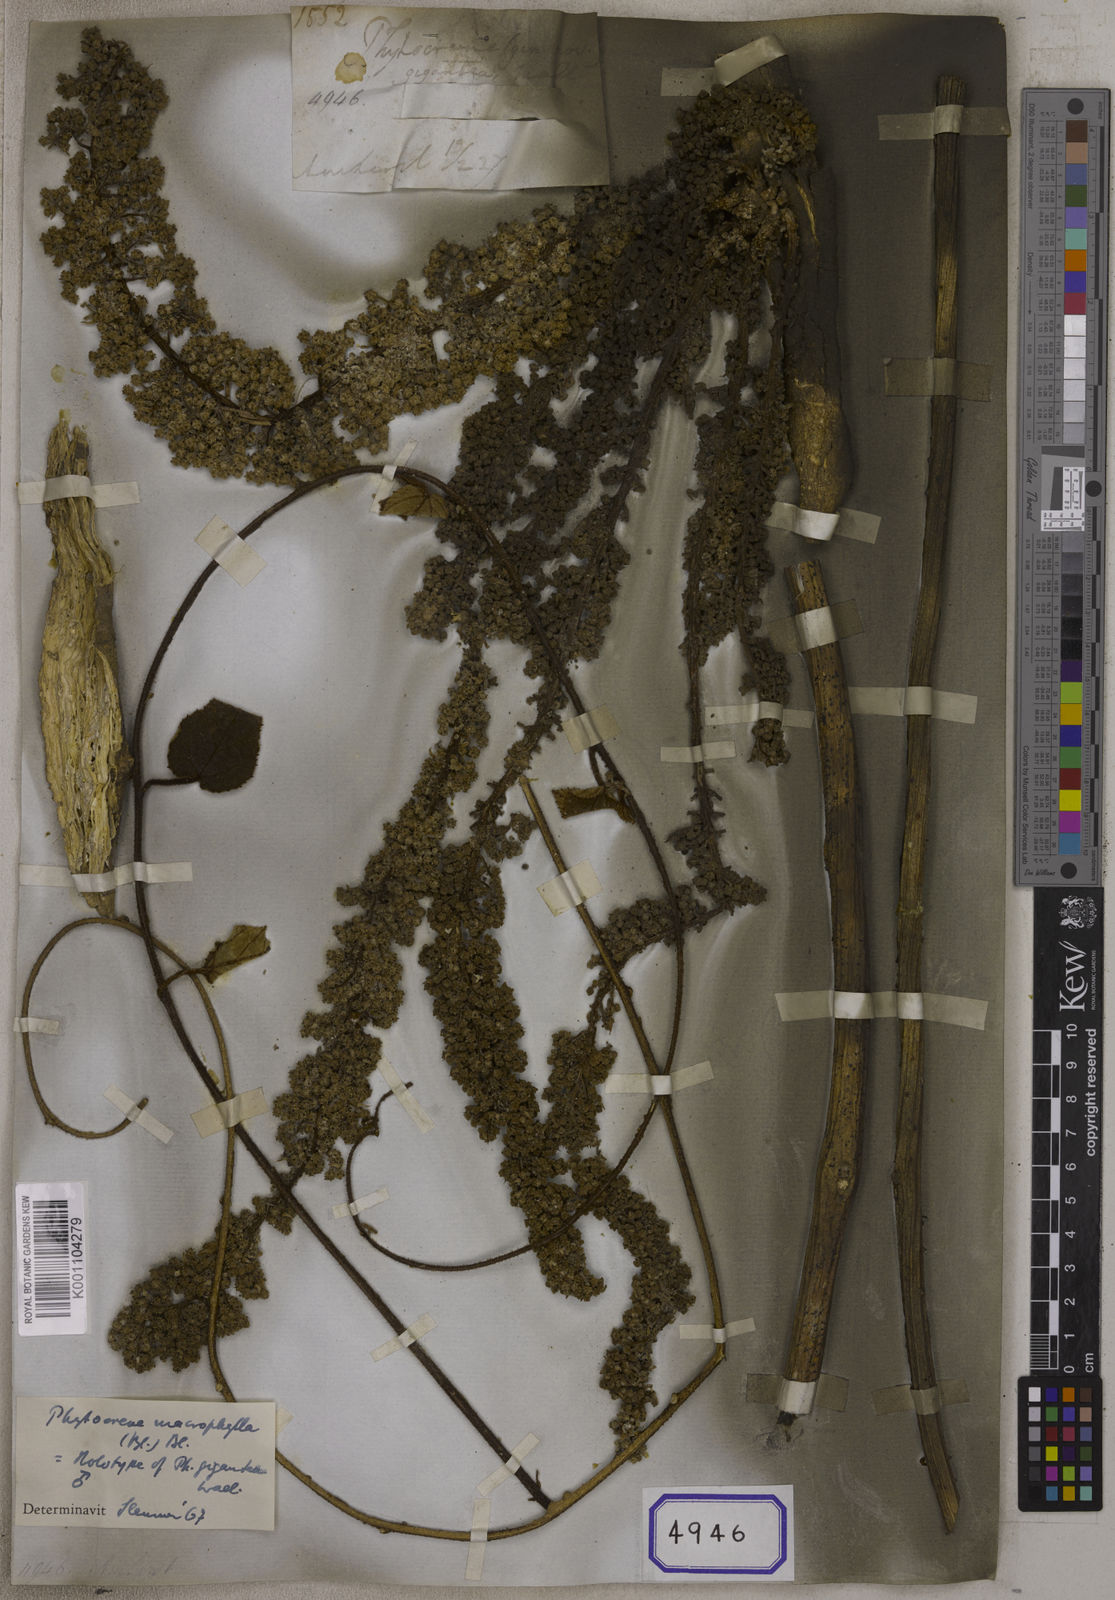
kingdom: Plantae
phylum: Tracheophyta
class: Magnoliopsida
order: Icacinales
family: Icacinaceae
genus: Phytocrene
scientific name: Phytocrene macrophylla
